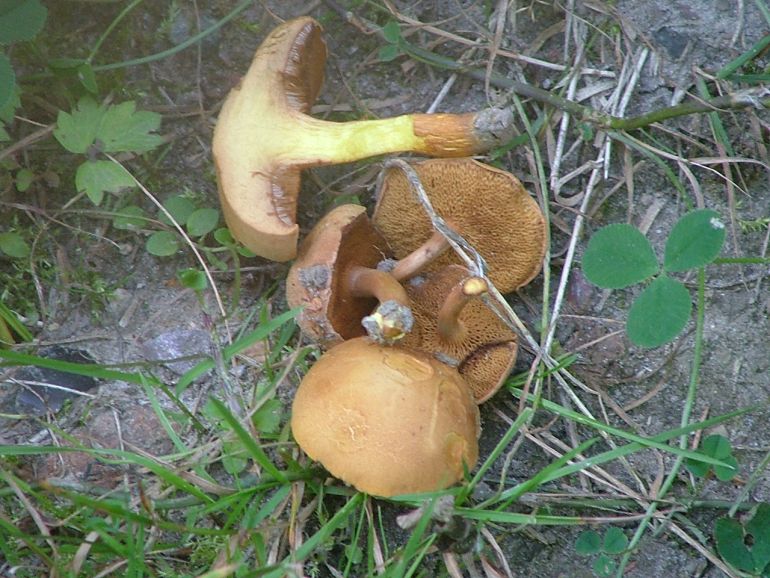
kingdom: Fungi
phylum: Basidiomycota
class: Agaricomycetes
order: Boletales
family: Boletaceae
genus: Chalciporus
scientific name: Chalciporus piperatus
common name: peberrørhat
